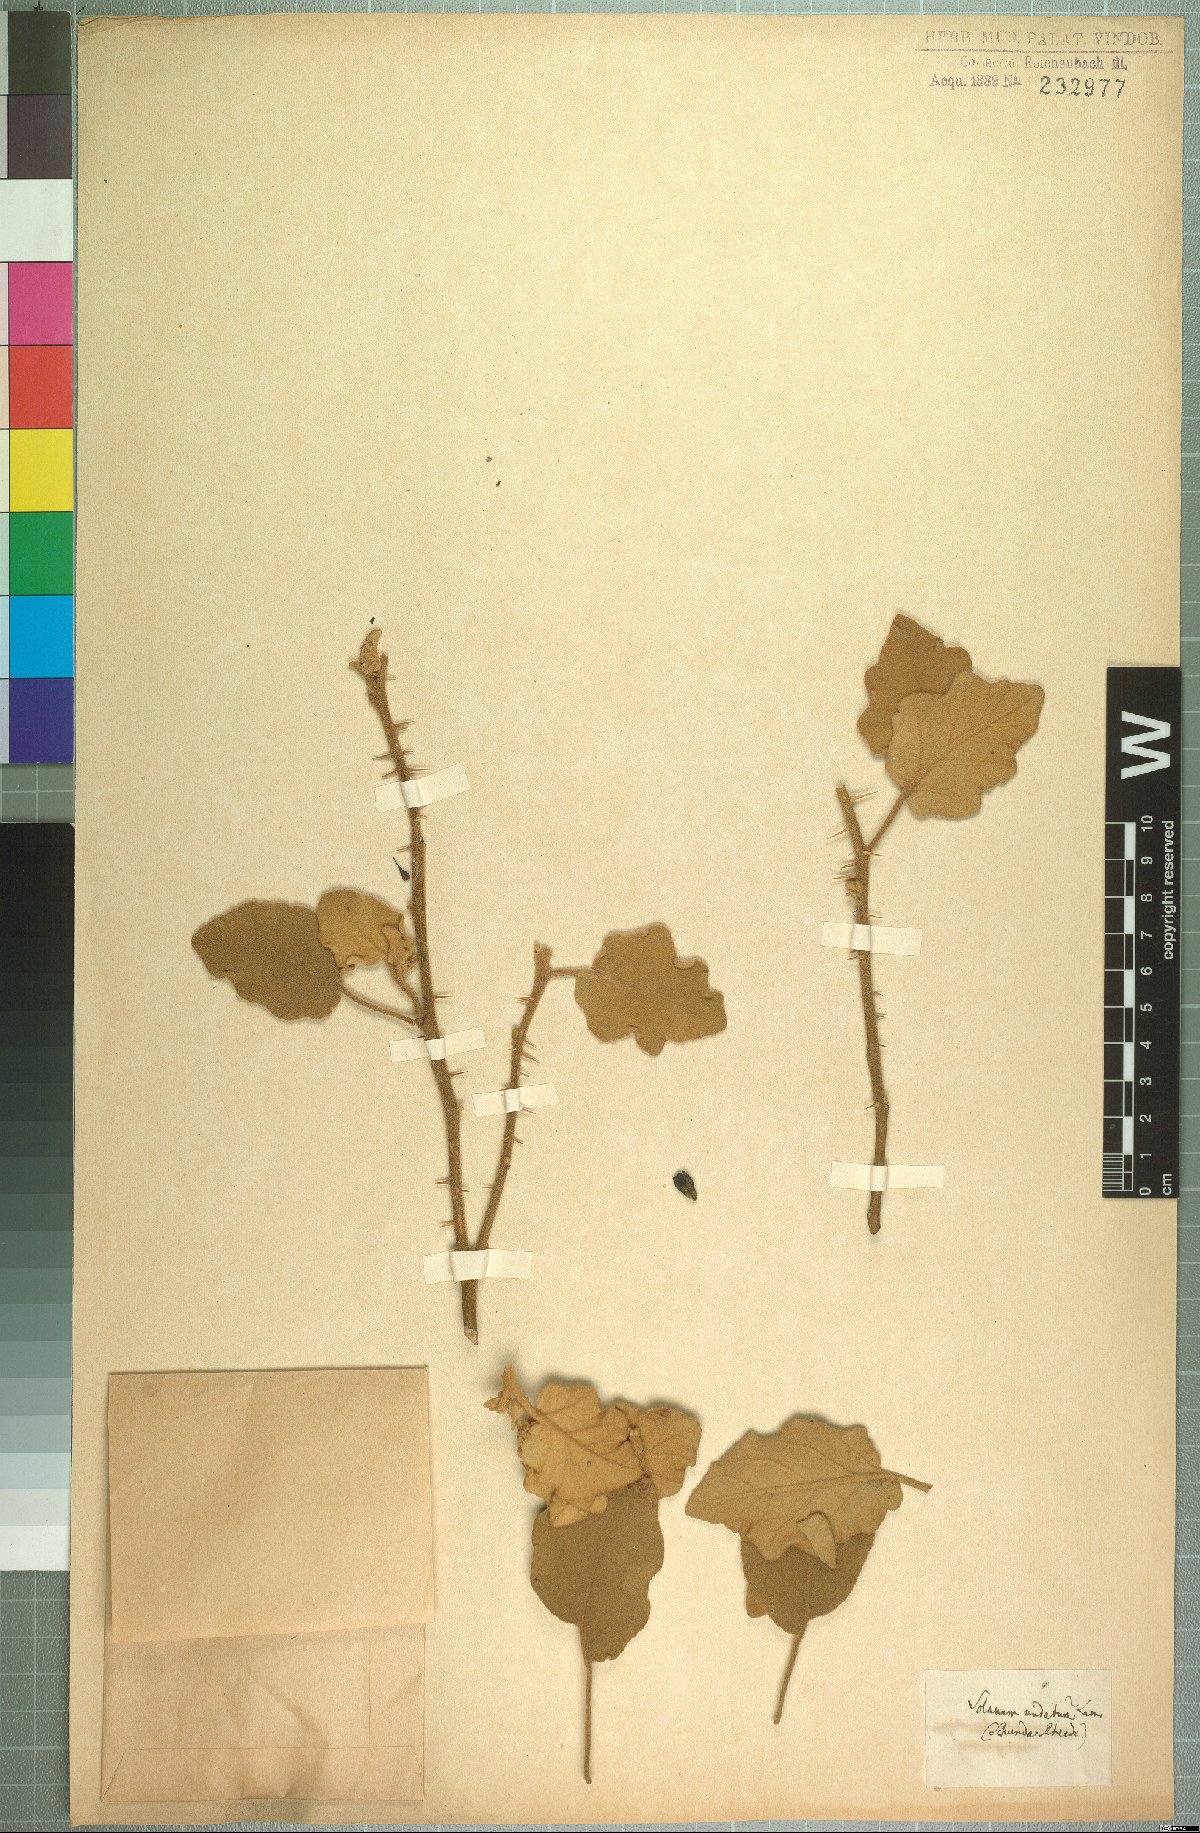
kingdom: Plantae
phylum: Tracheophyta
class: Magnoliopsida
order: Solanales
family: Solanaceae
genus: Solanum
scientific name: Solanum insanum
